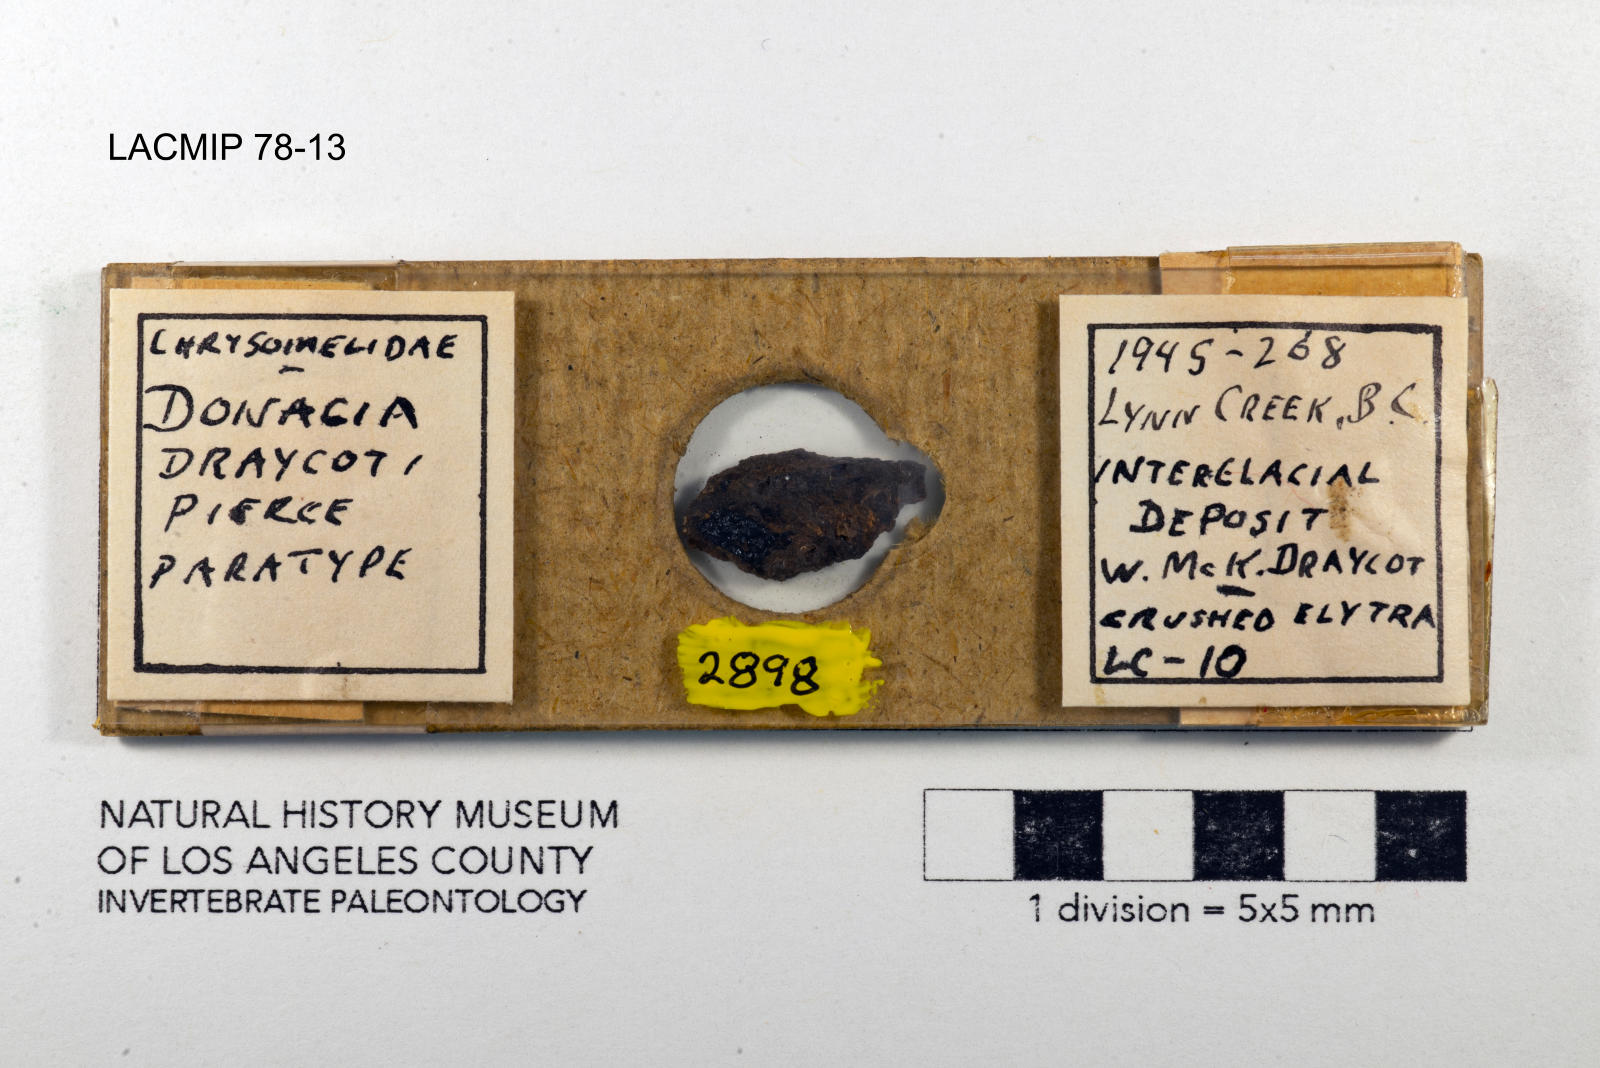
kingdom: Animalia
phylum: Arthropoda
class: Insecta
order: Coleoptera
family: Chrysomelidae
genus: Donacia
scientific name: Donacia draycoti
